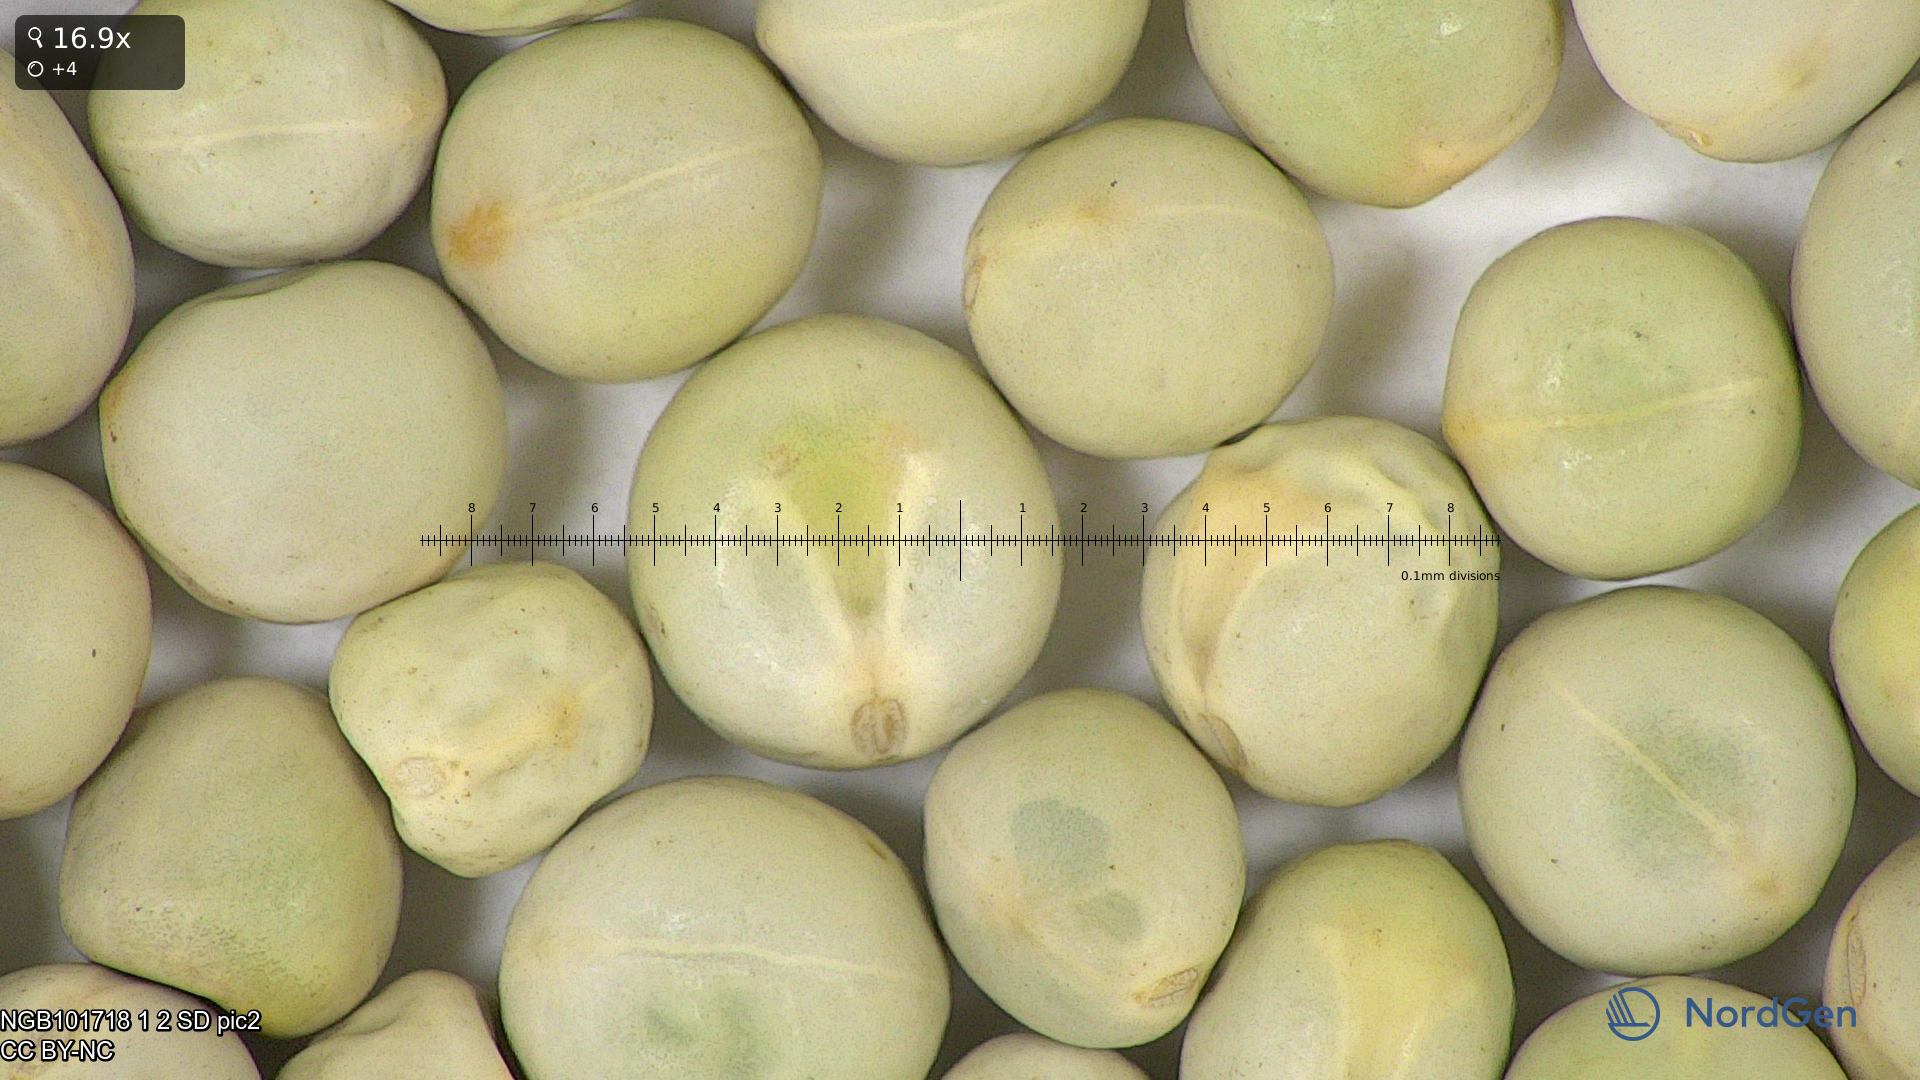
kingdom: Plantae
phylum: Tracheophyta
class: Magnoliopsida
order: Fabales
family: Fabaceae
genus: Lathyrus
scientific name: Lathyrus oleraceus
